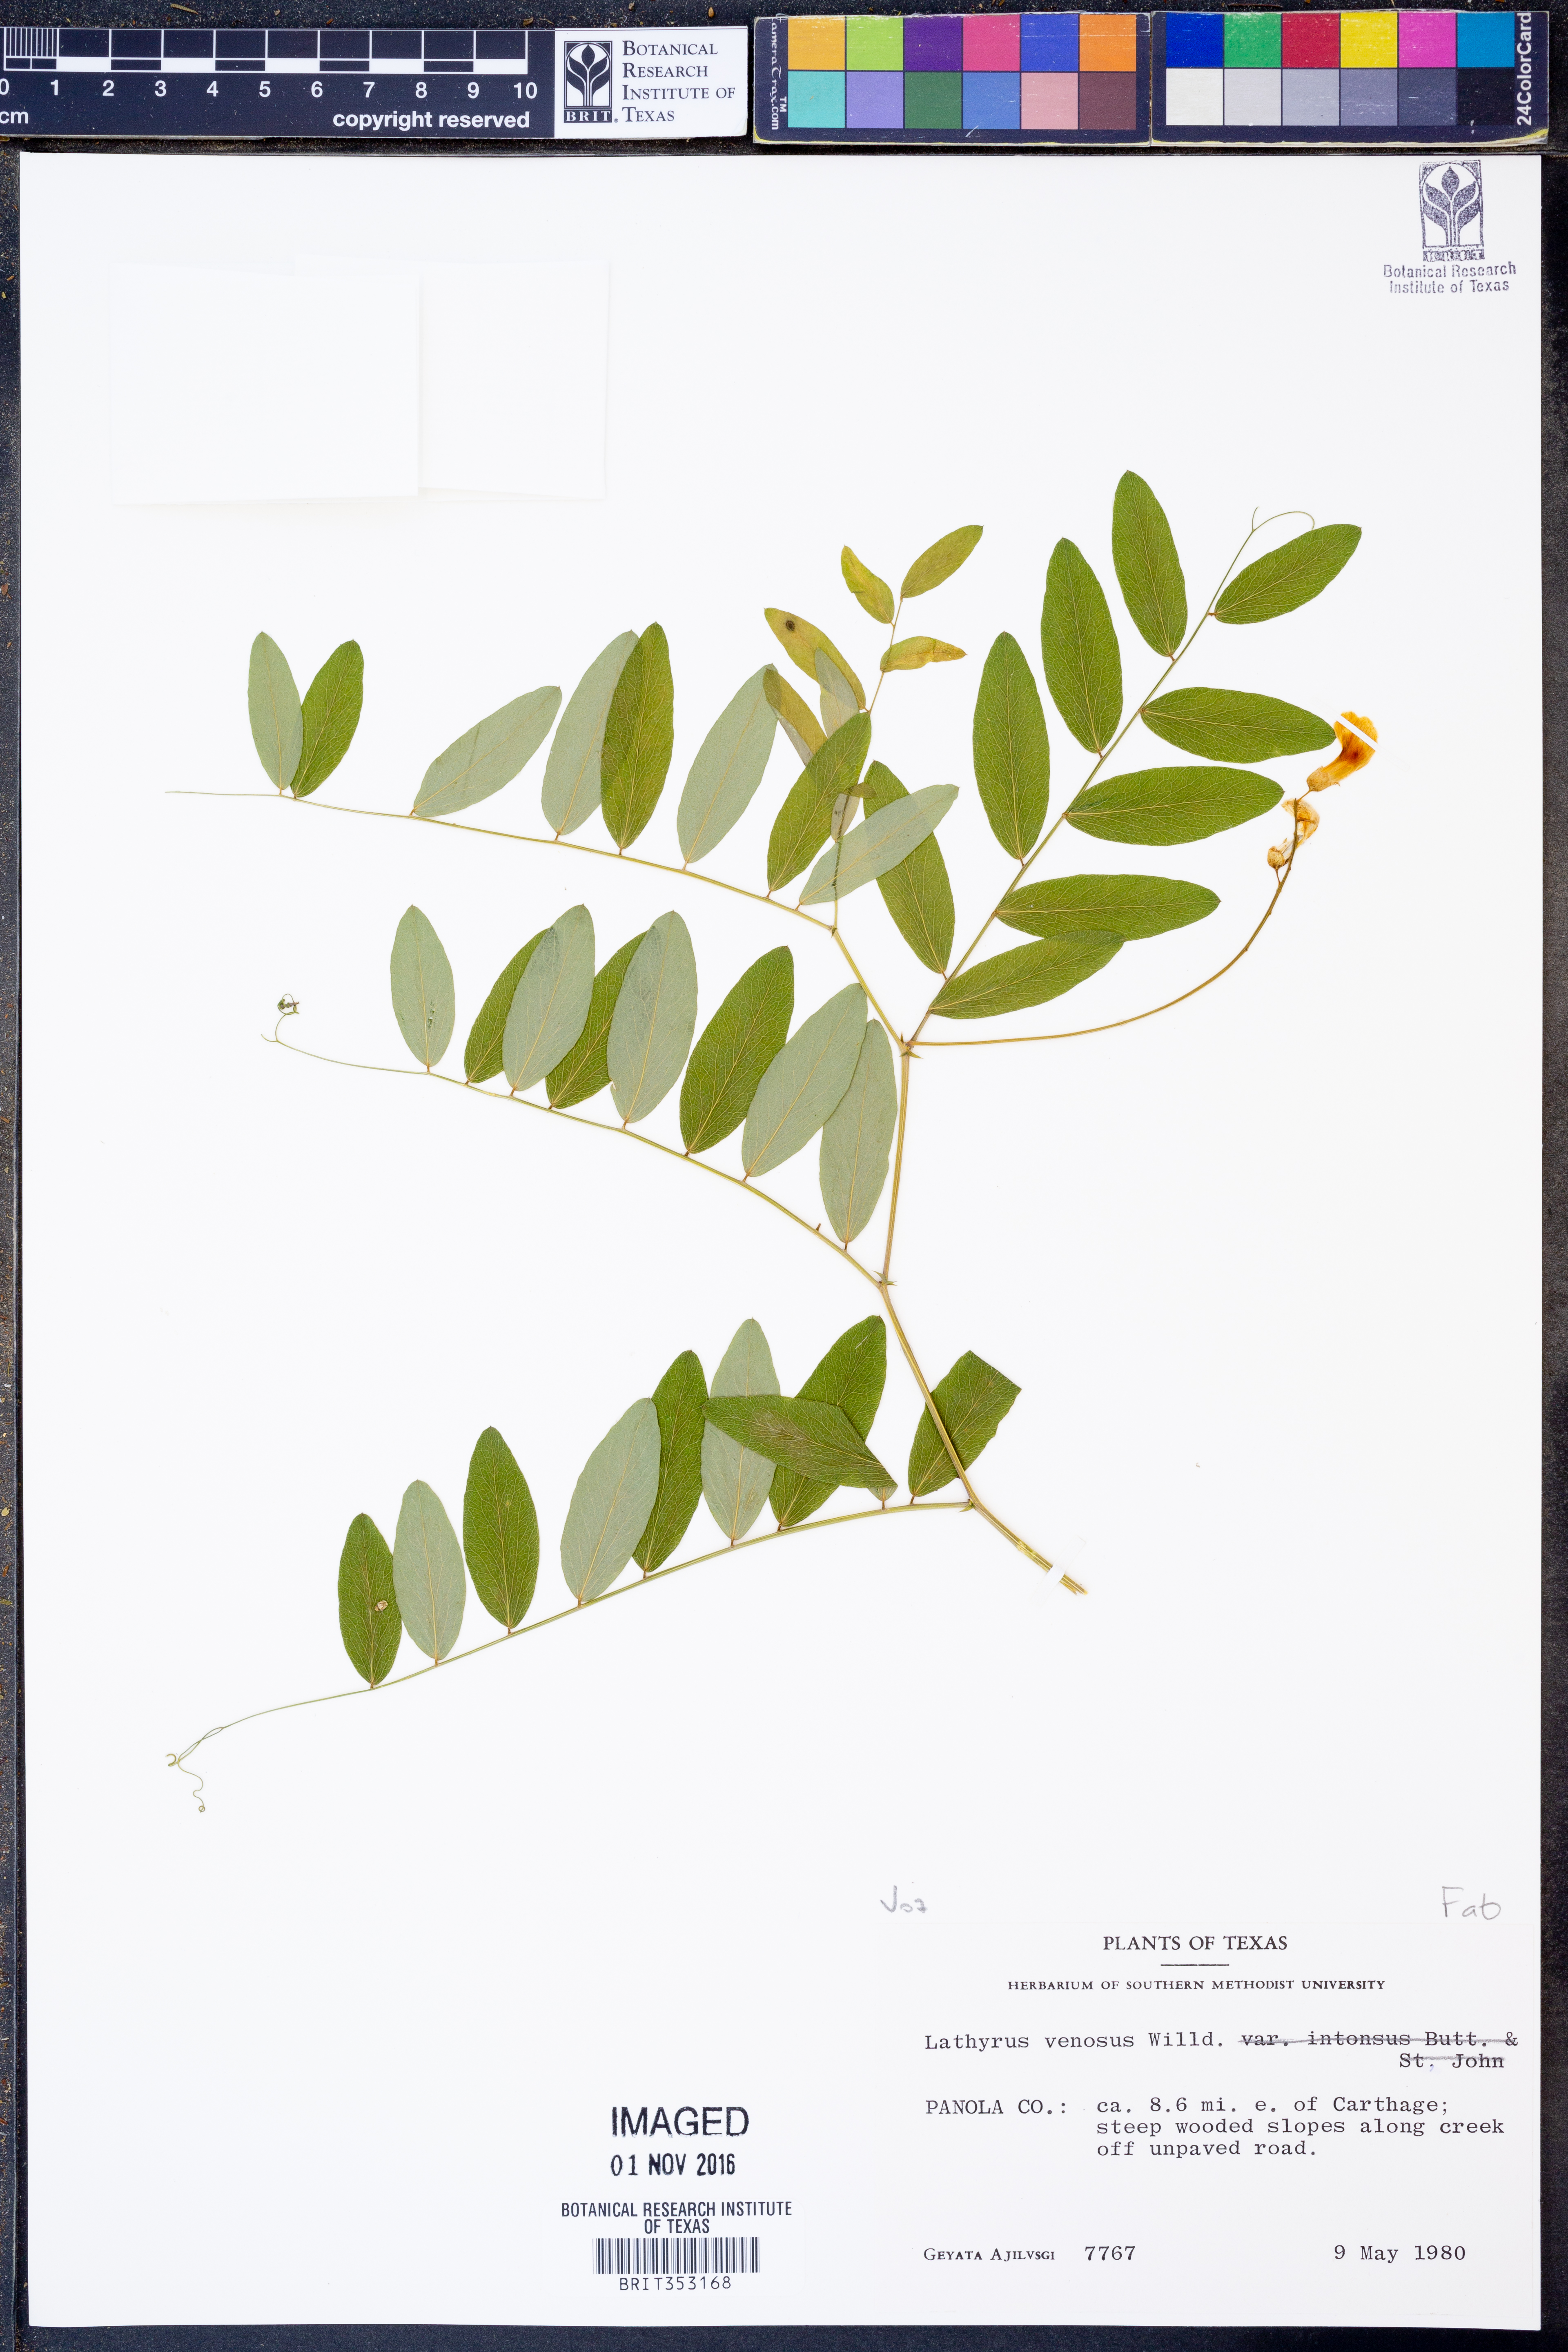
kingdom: Plantae
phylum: Tracheophyta
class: Magnoliopsida
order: Fabales
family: Fabaceae
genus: Lathyrus
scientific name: Lathyrus venosus
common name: Forest-pea
